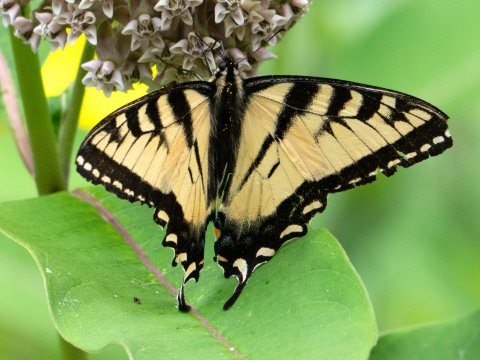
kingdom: Animalia
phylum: Arthropoda
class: Insecta
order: Lepidoptera
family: Papilionidae
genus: Pterourus
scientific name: Pterourus canadensis
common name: Canadian Tiger Swallowtail
